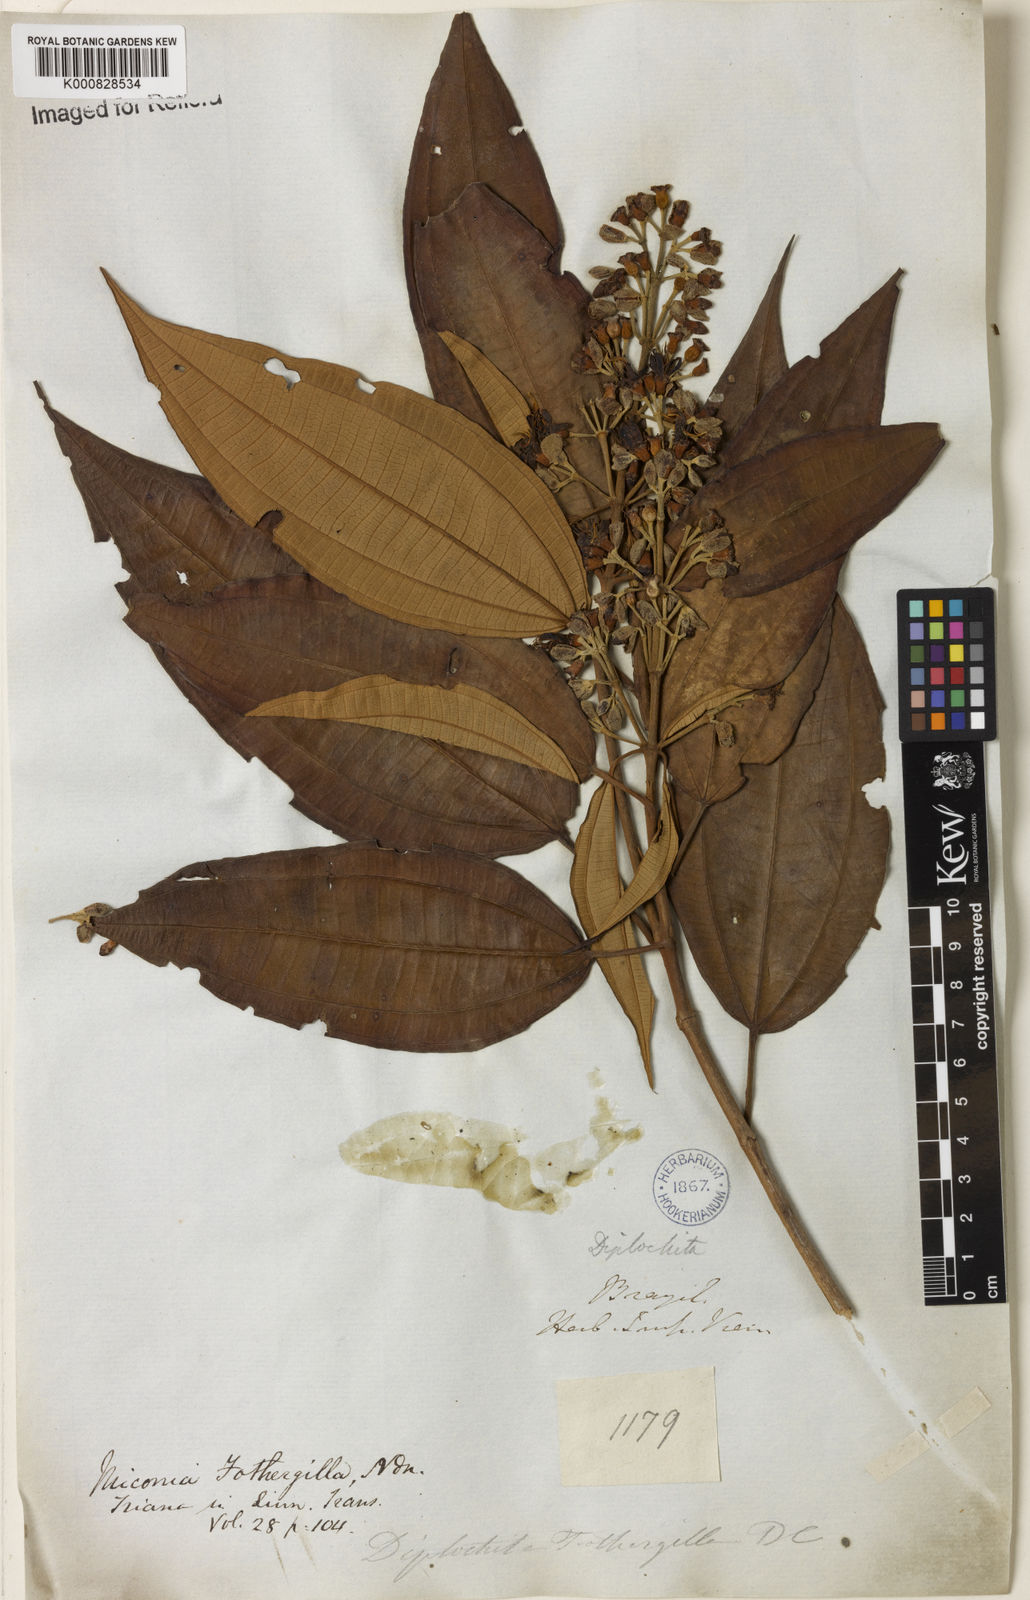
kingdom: Plantae
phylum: Tracheophyta
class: Magnoliopsida
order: Myrtales
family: Melastomataceae
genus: Miconia
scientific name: Miconia mirabilis
